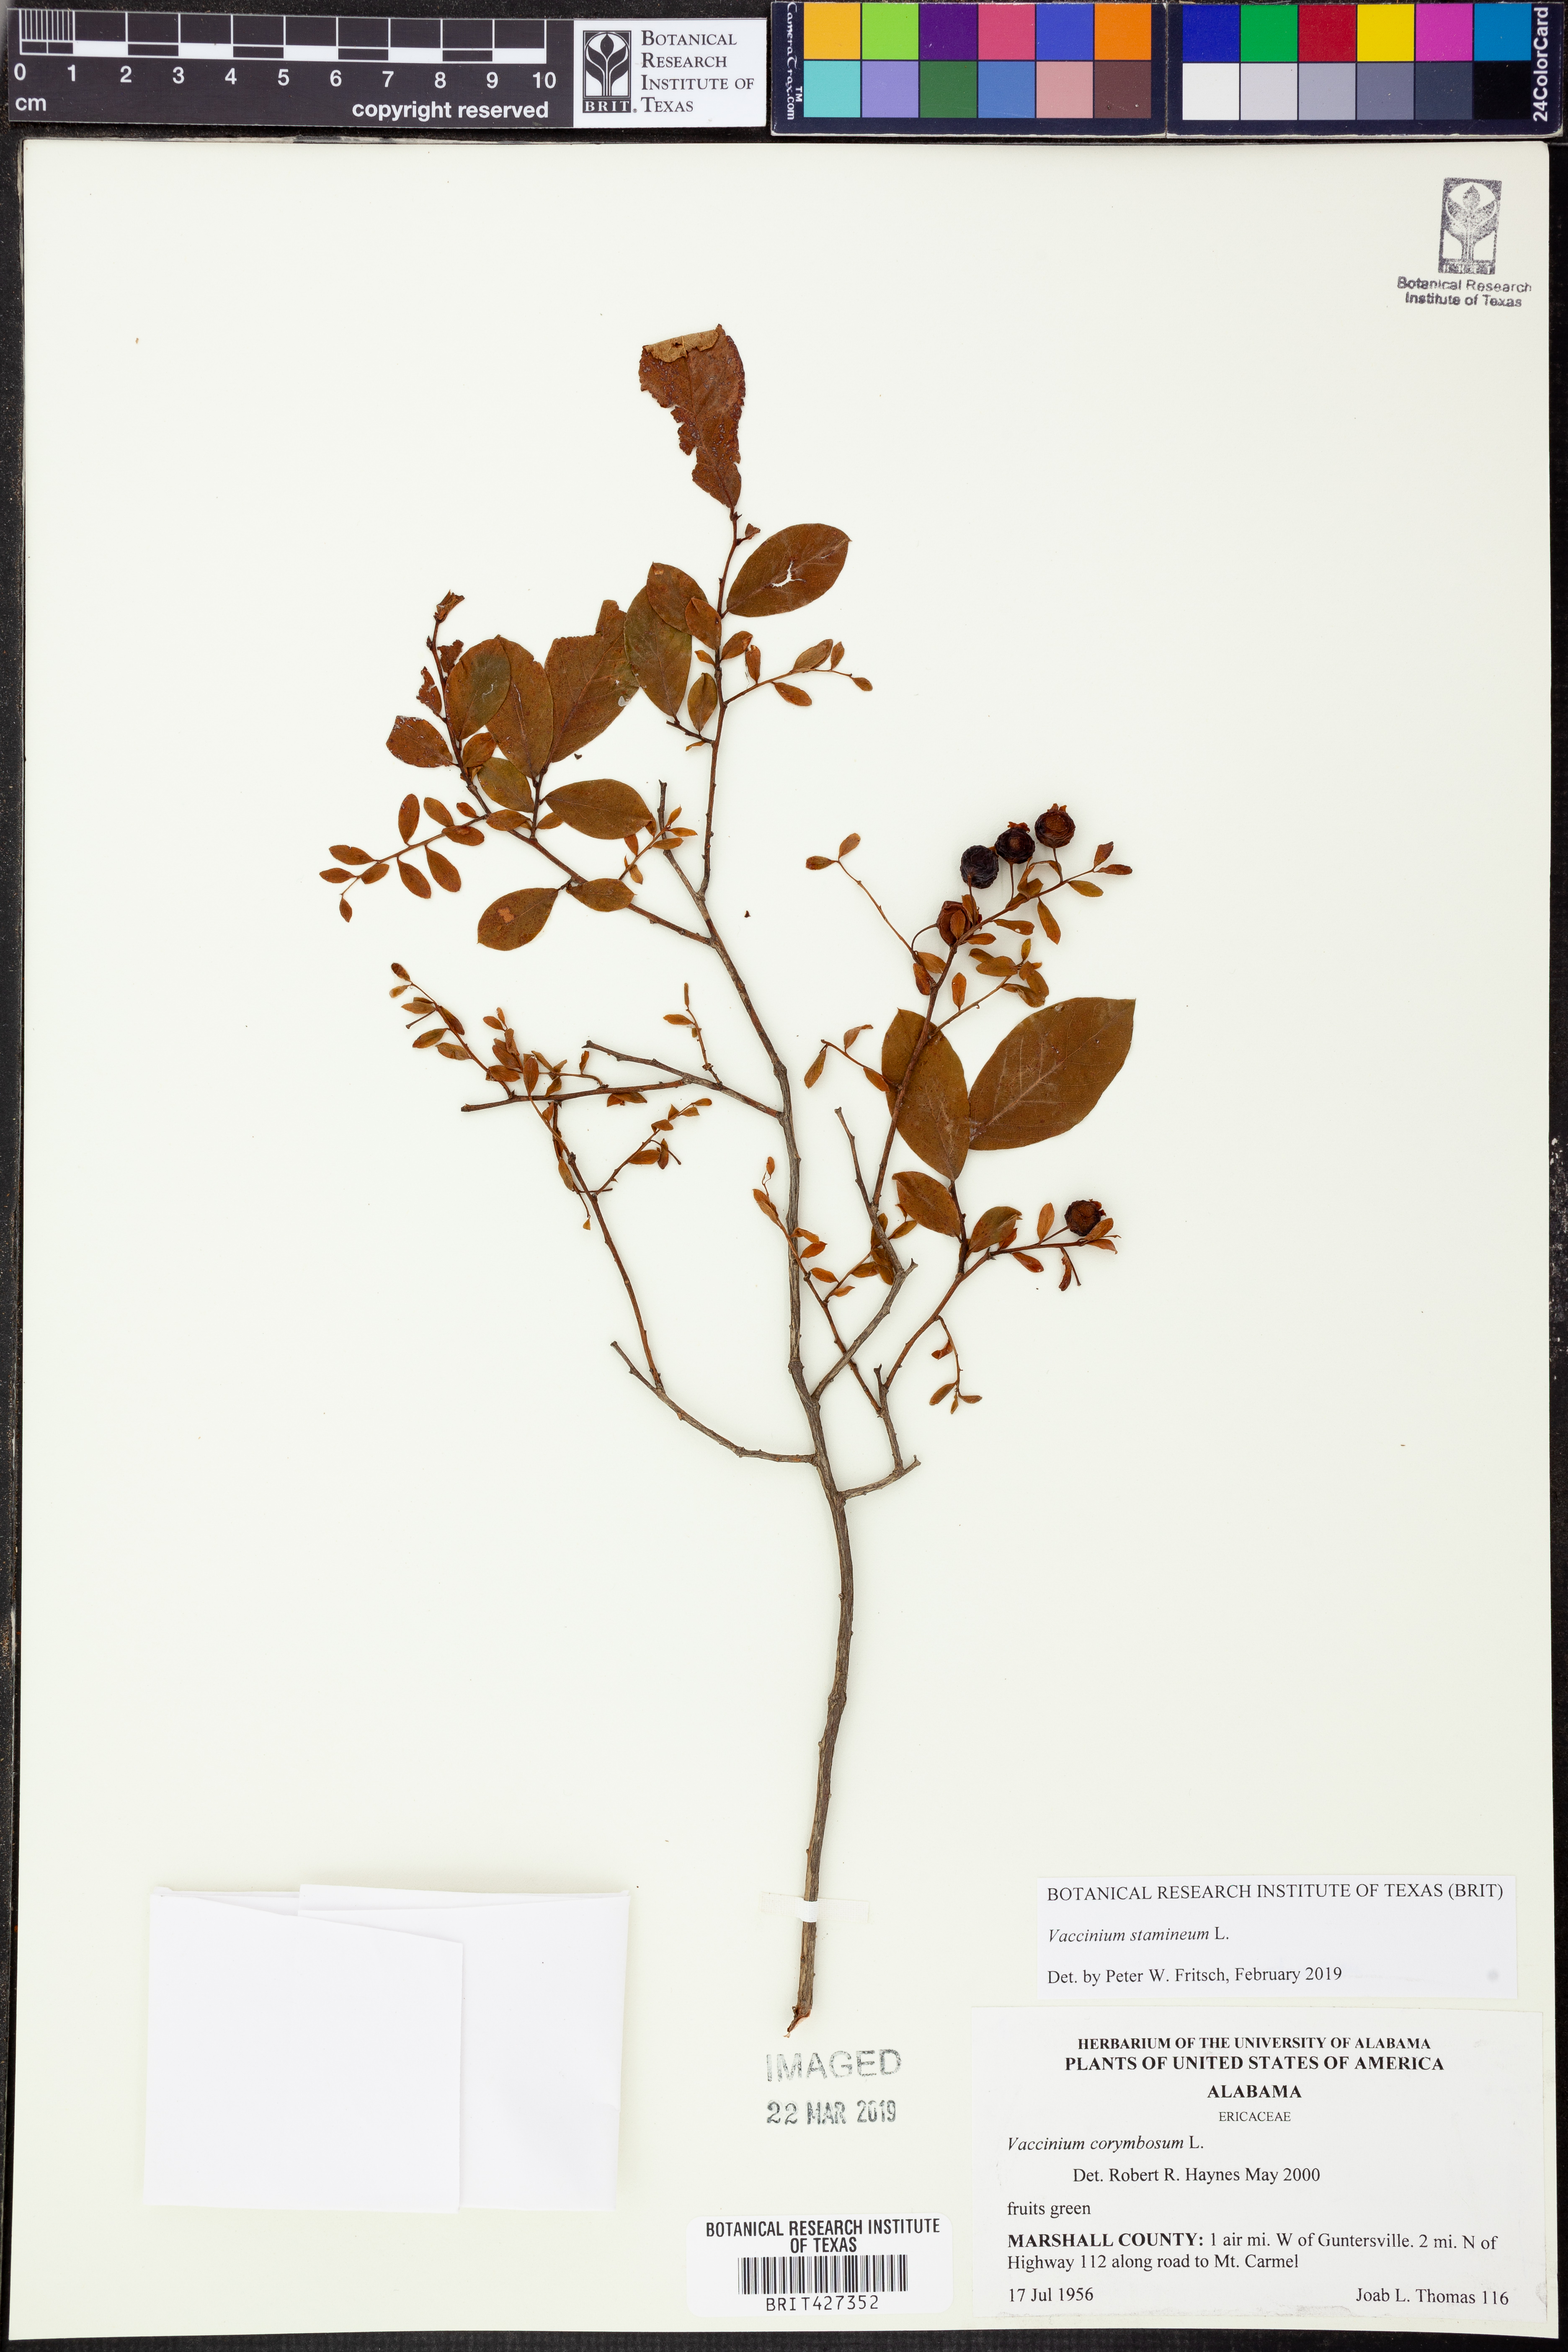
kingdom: Plantae
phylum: Tracheophyta
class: Magnoliopsida
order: Ericales
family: Ericaceae
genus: Vaccinium
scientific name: Vaccinium stamineum
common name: Deerberry
